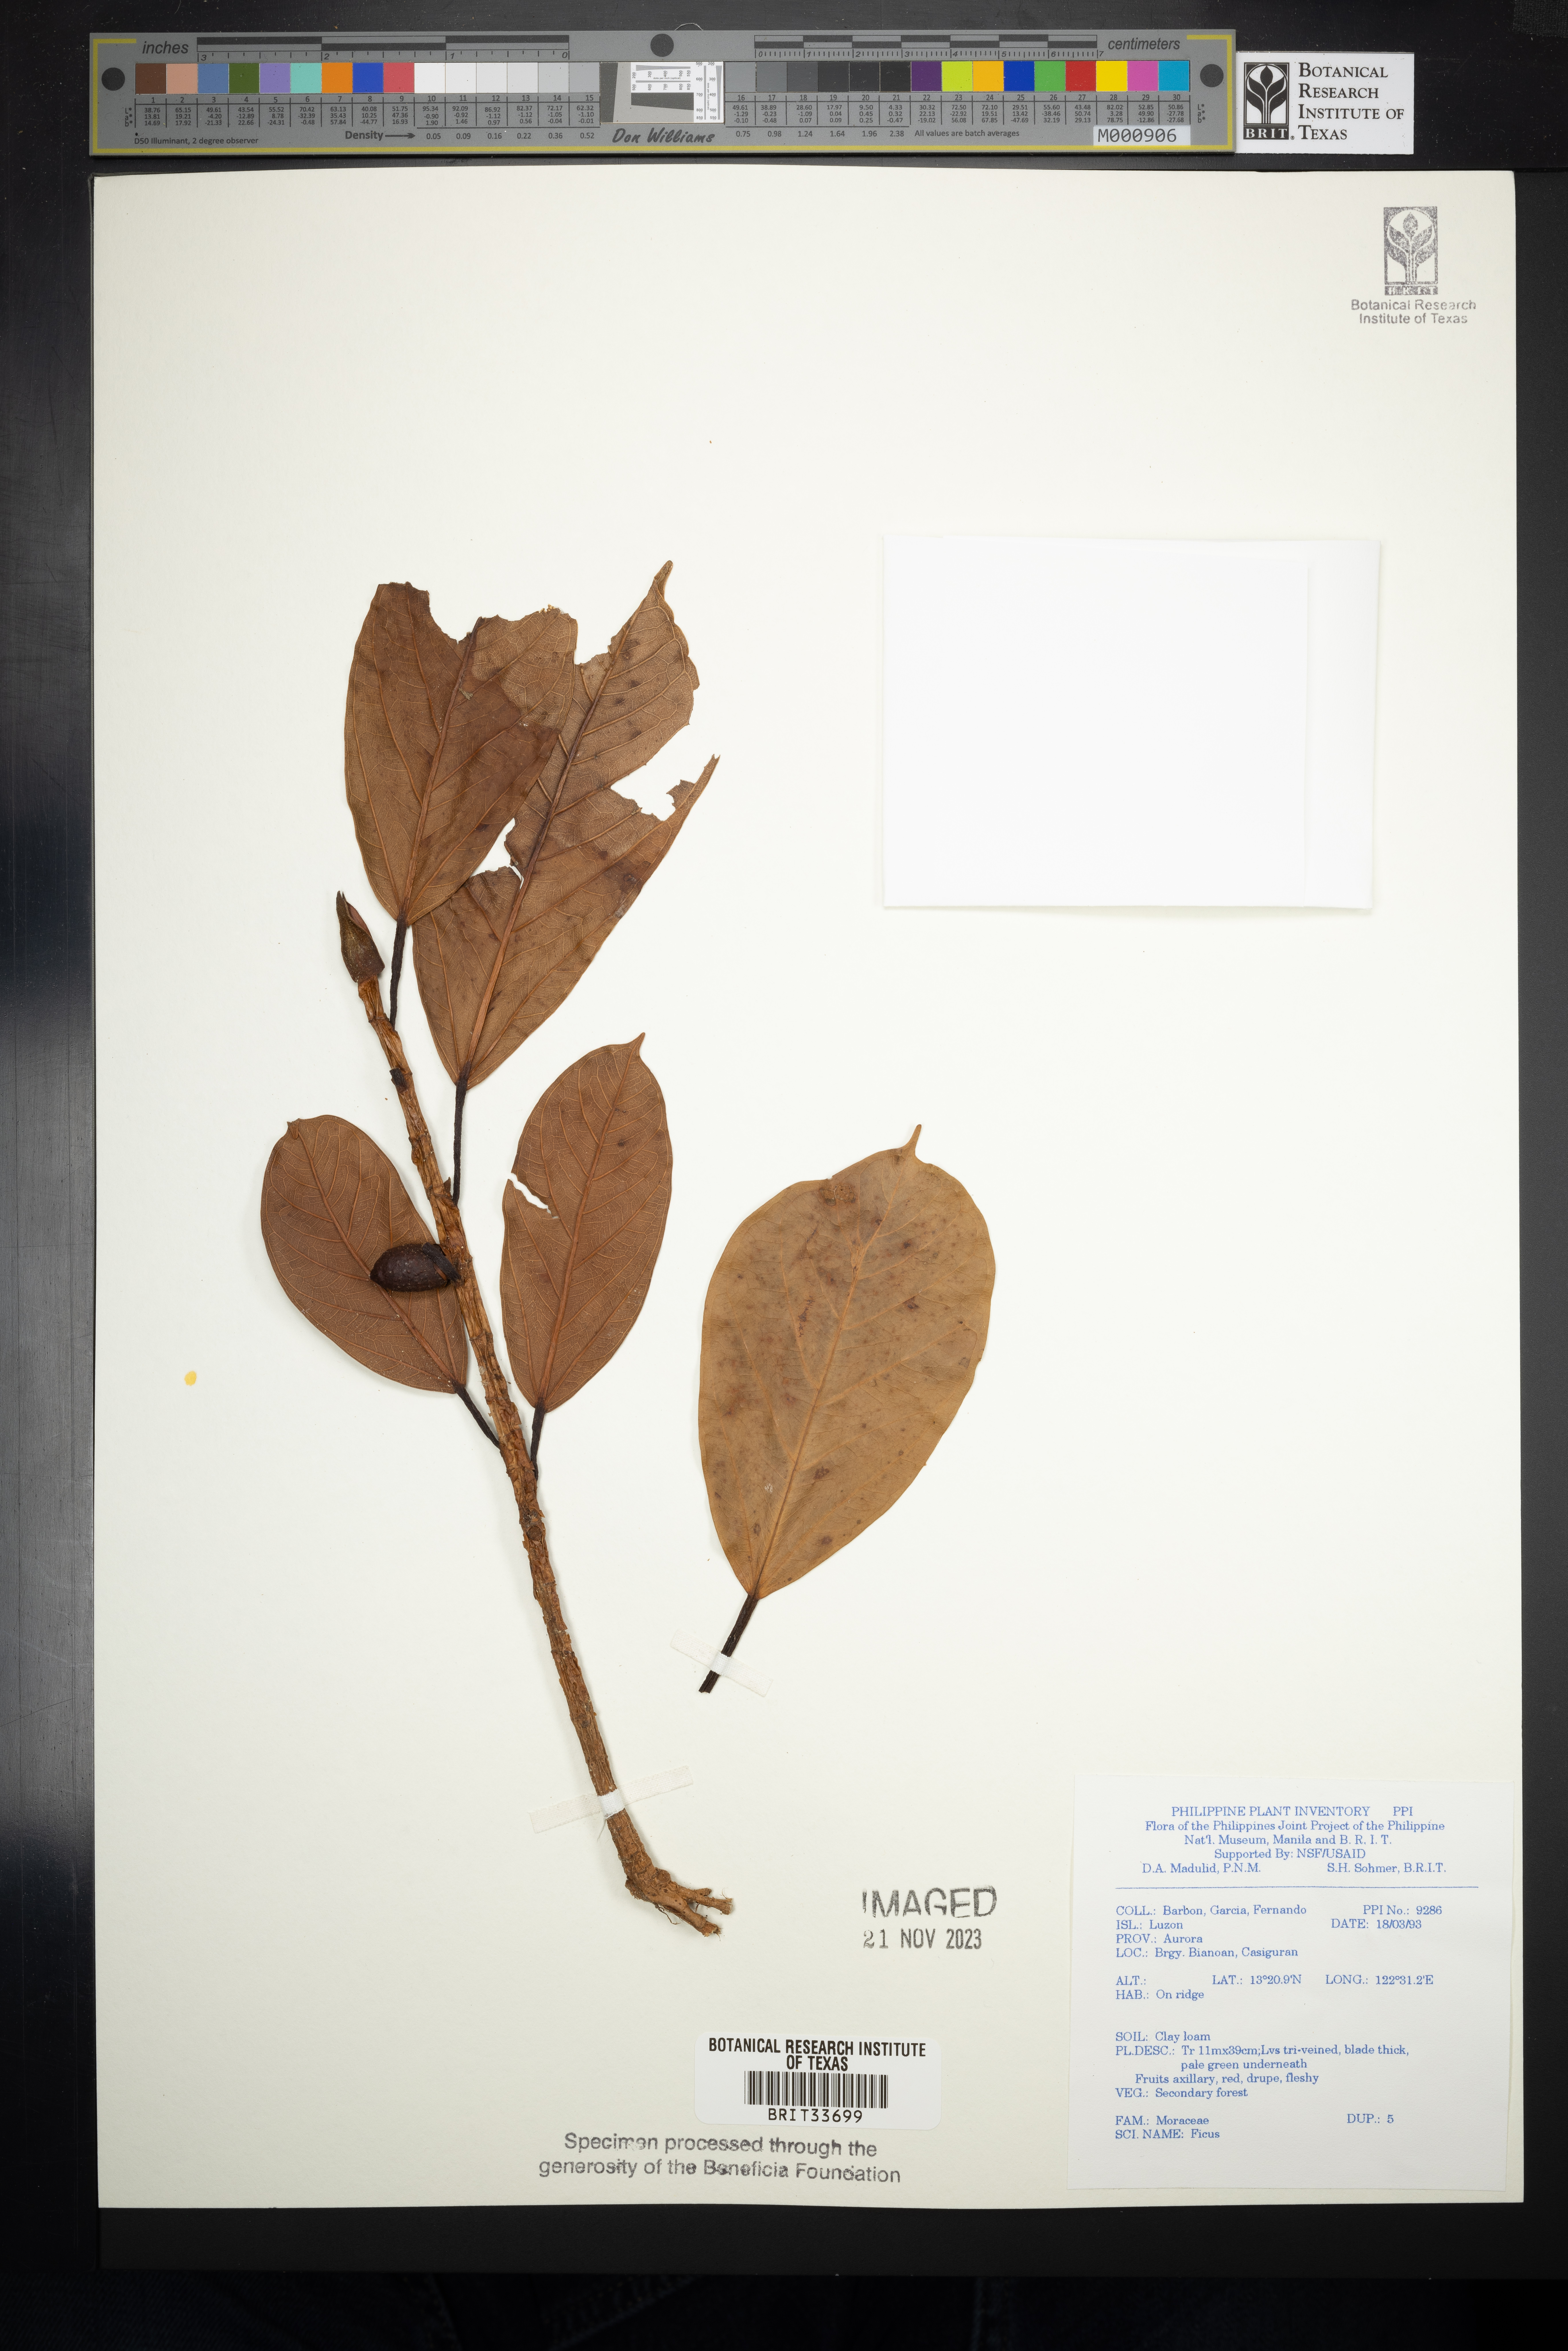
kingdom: Plantae
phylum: Tracheophyta
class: Magnoliopsida
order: Rosales
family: Moraceae
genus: Ficus
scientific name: Ficus
